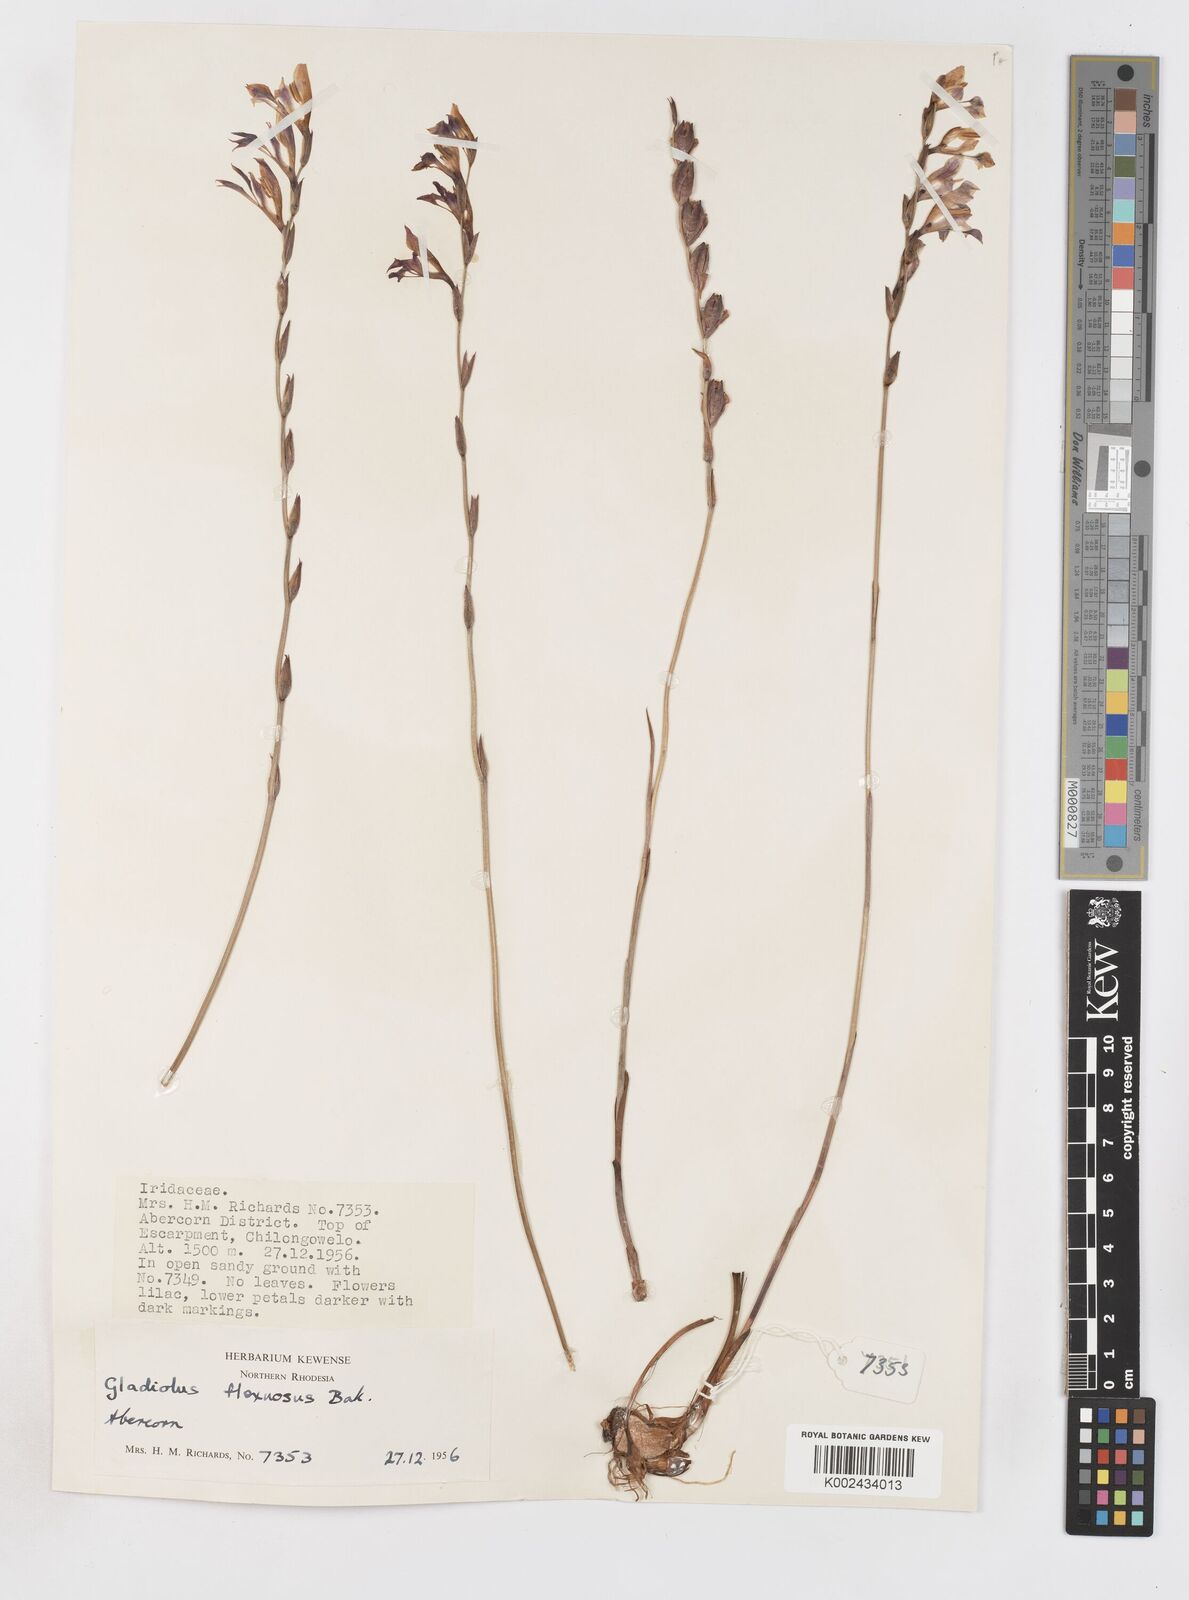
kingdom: Plantae
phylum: Tracheophyta
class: Liliopsida
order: Asparagales
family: Iridaceae
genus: Gladiolus
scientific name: Gladiolus atropurpureus
